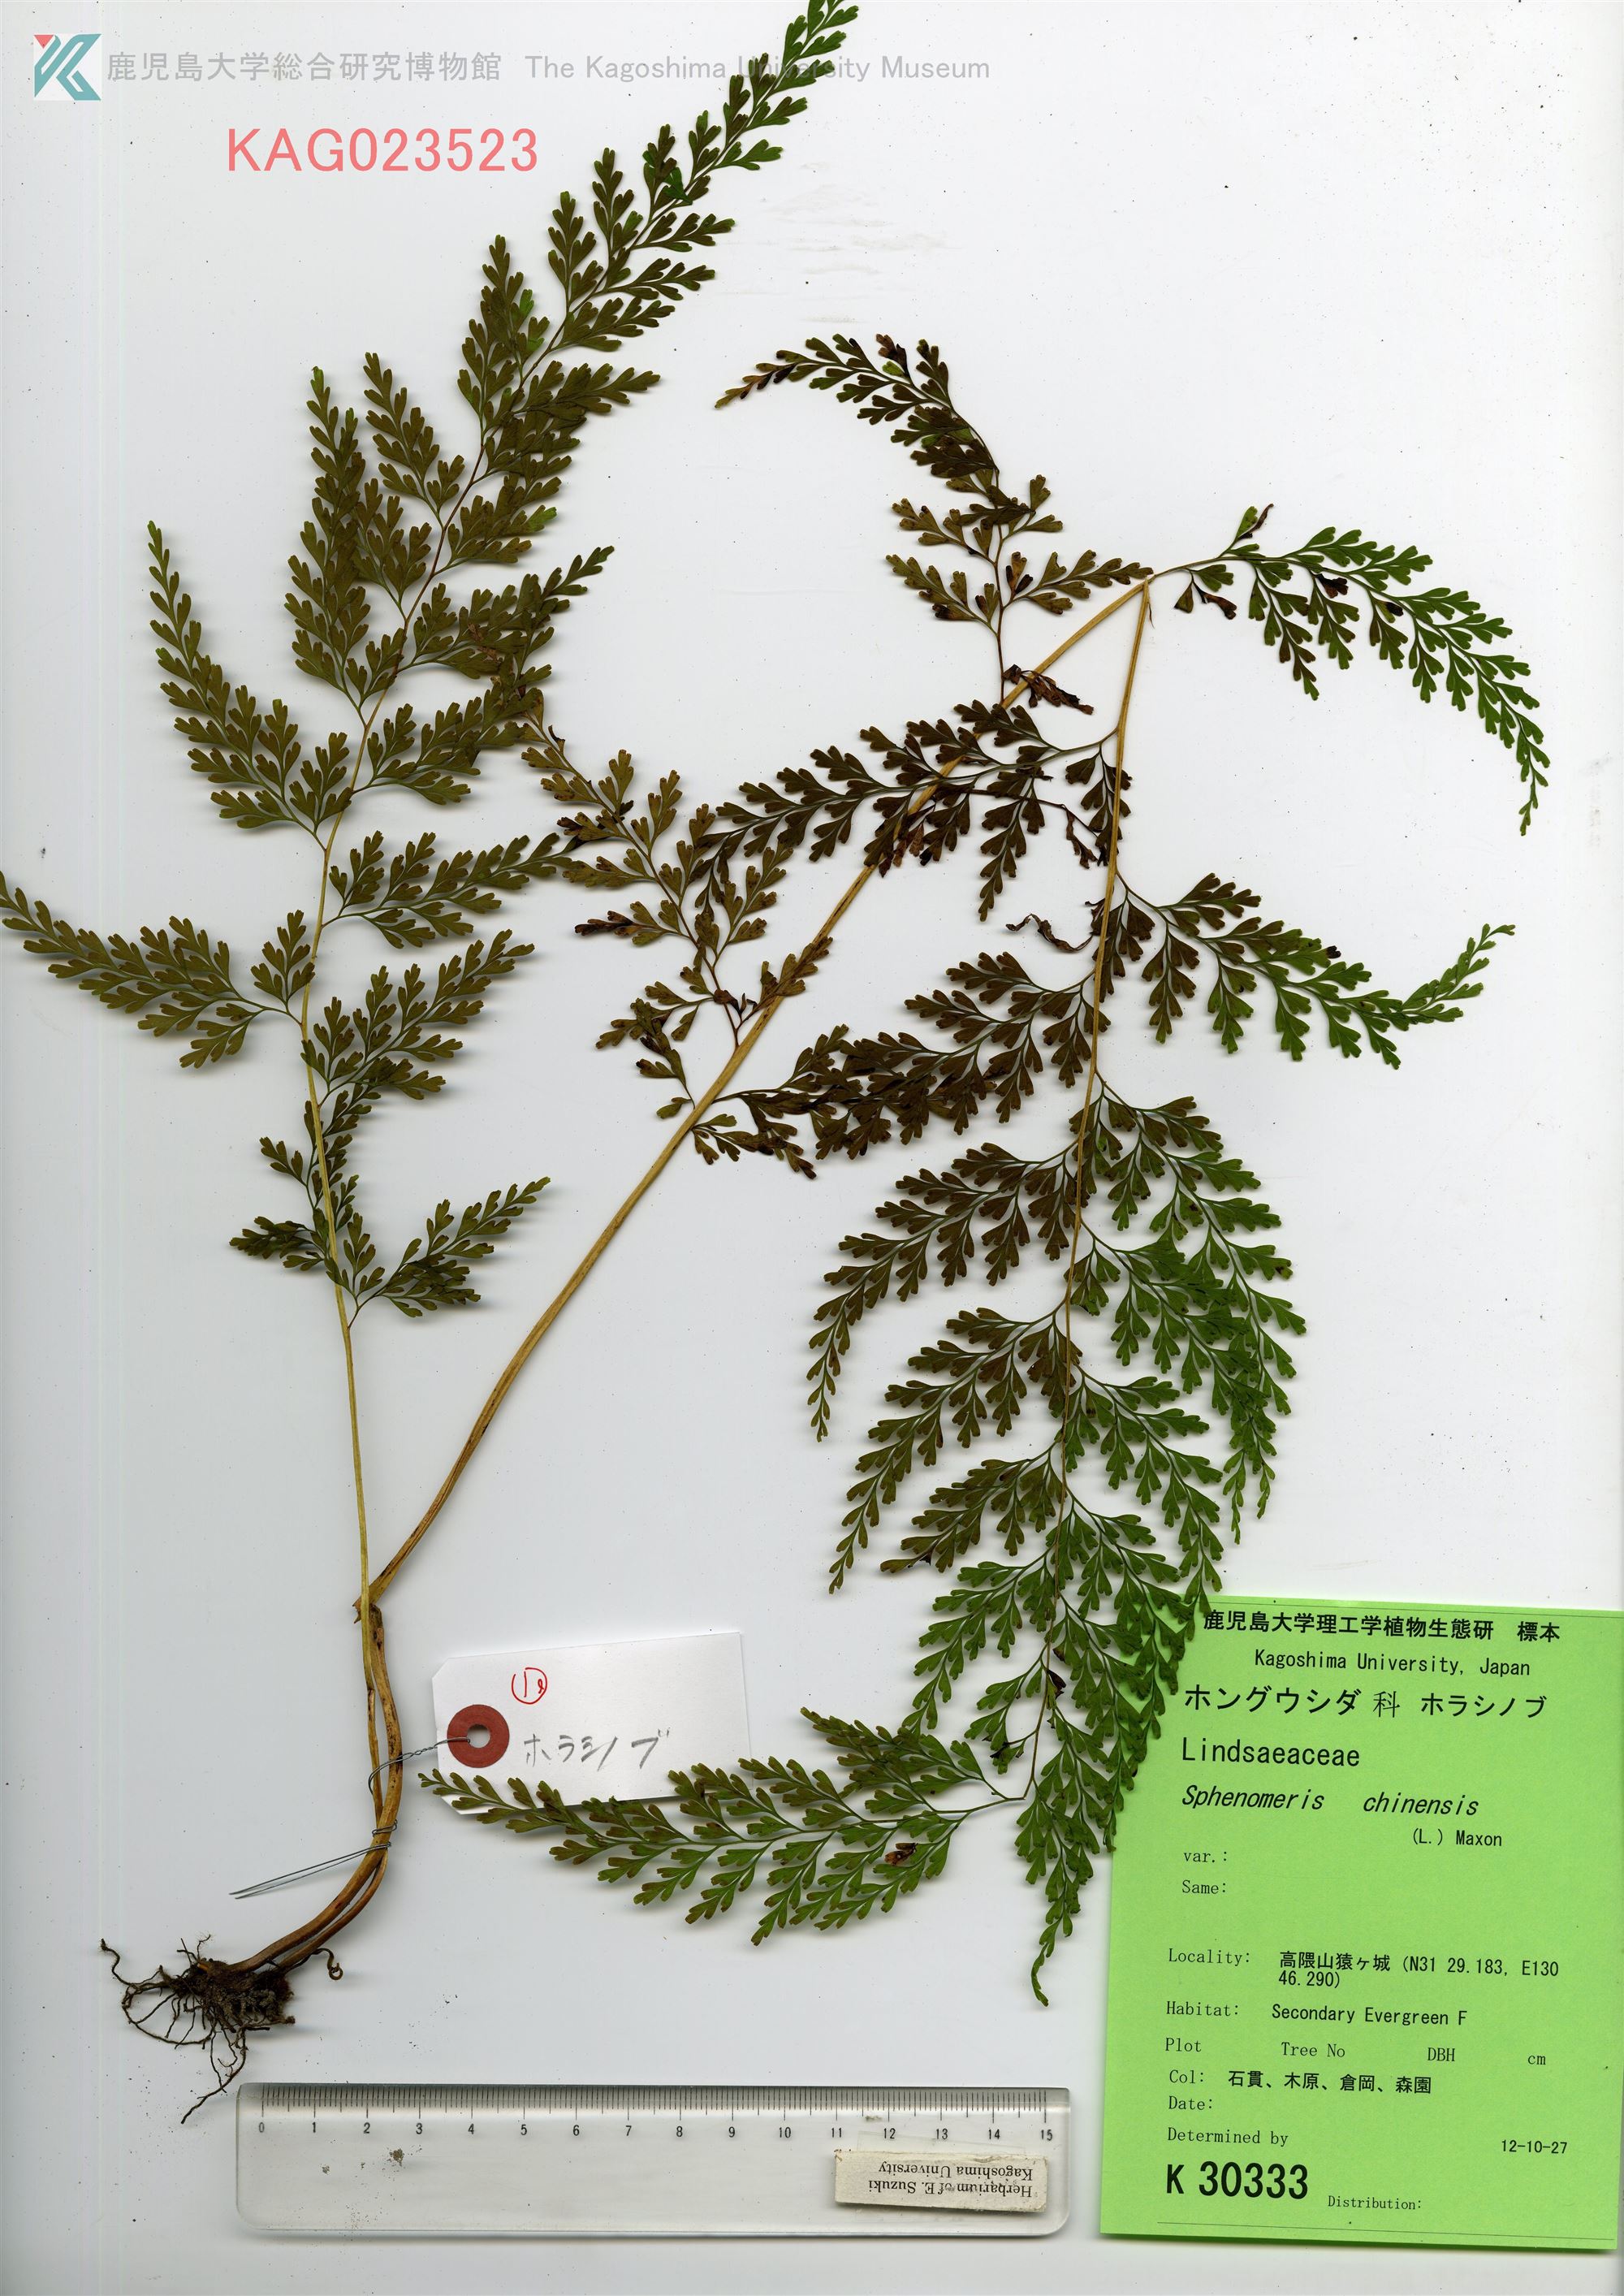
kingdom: Plantae
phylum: Tracheophyta
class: Polypodiopsida
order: Polypodiales
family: Lindsaeaceae
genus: Odontosoria
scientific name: Odontosoria chinensis
